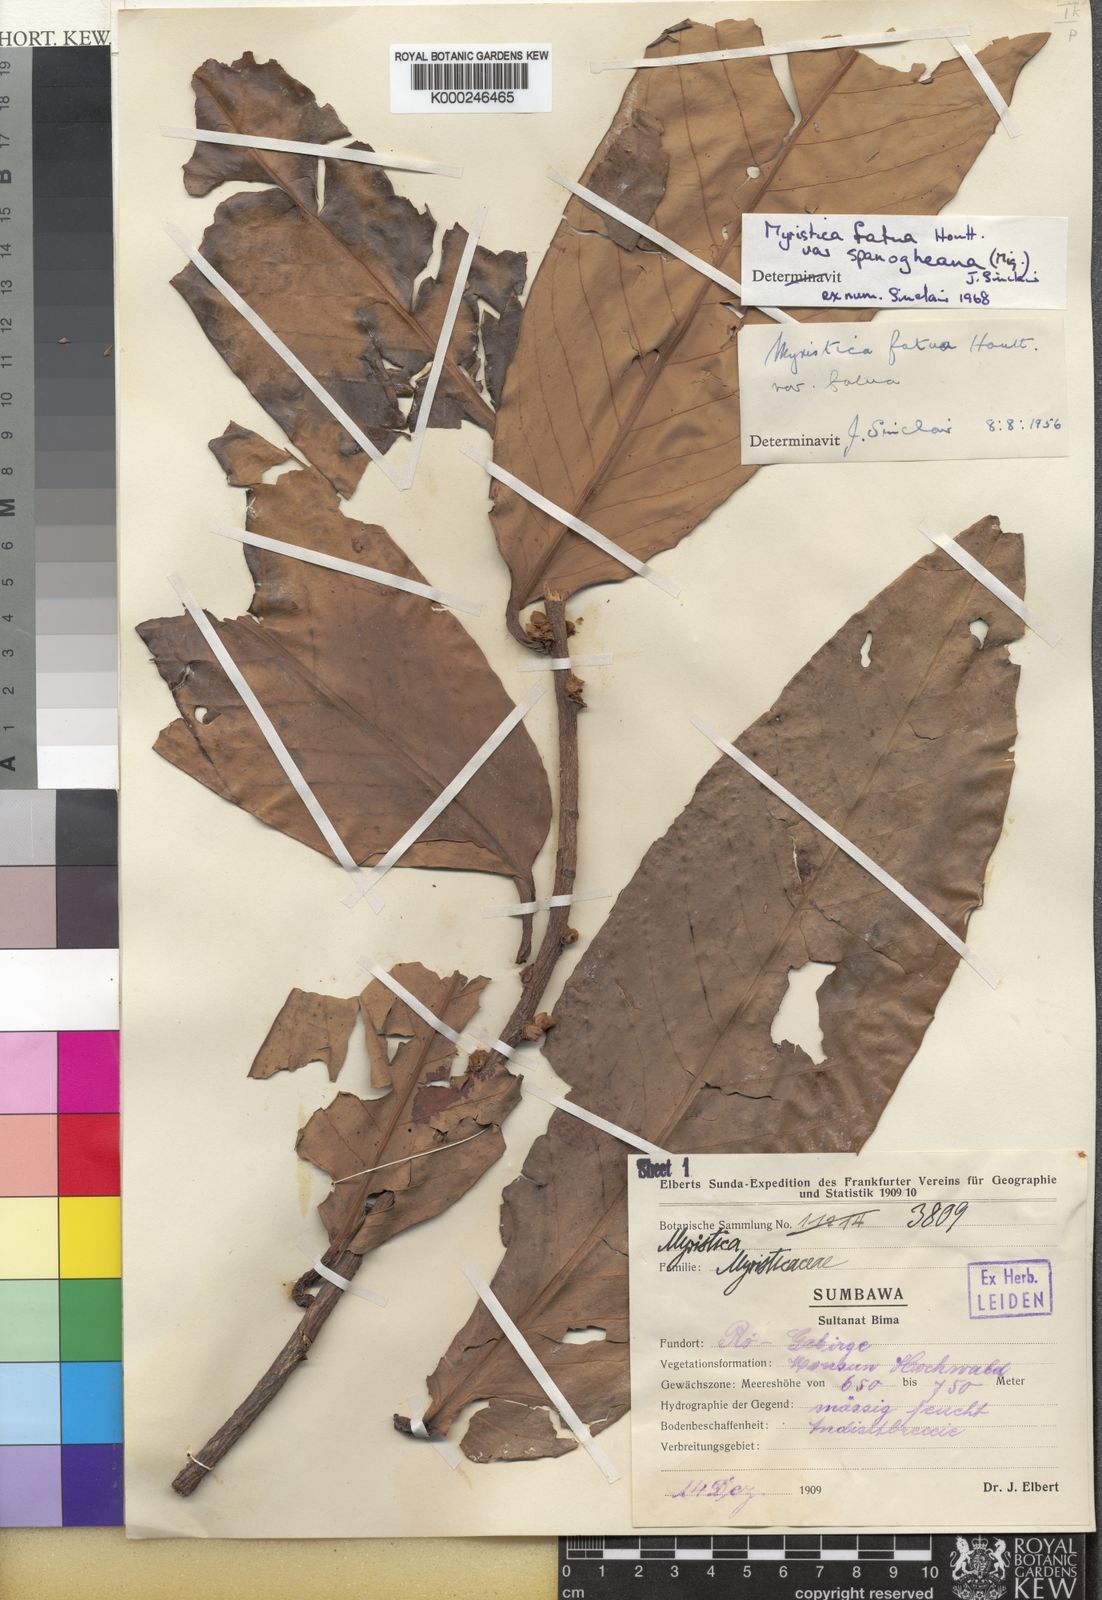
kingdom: Plantae
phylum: Tracheophyta
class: Magnoliopsida
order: Magnoliales
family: Myristicaceae
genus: Myristica
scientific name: Myristica fatua
